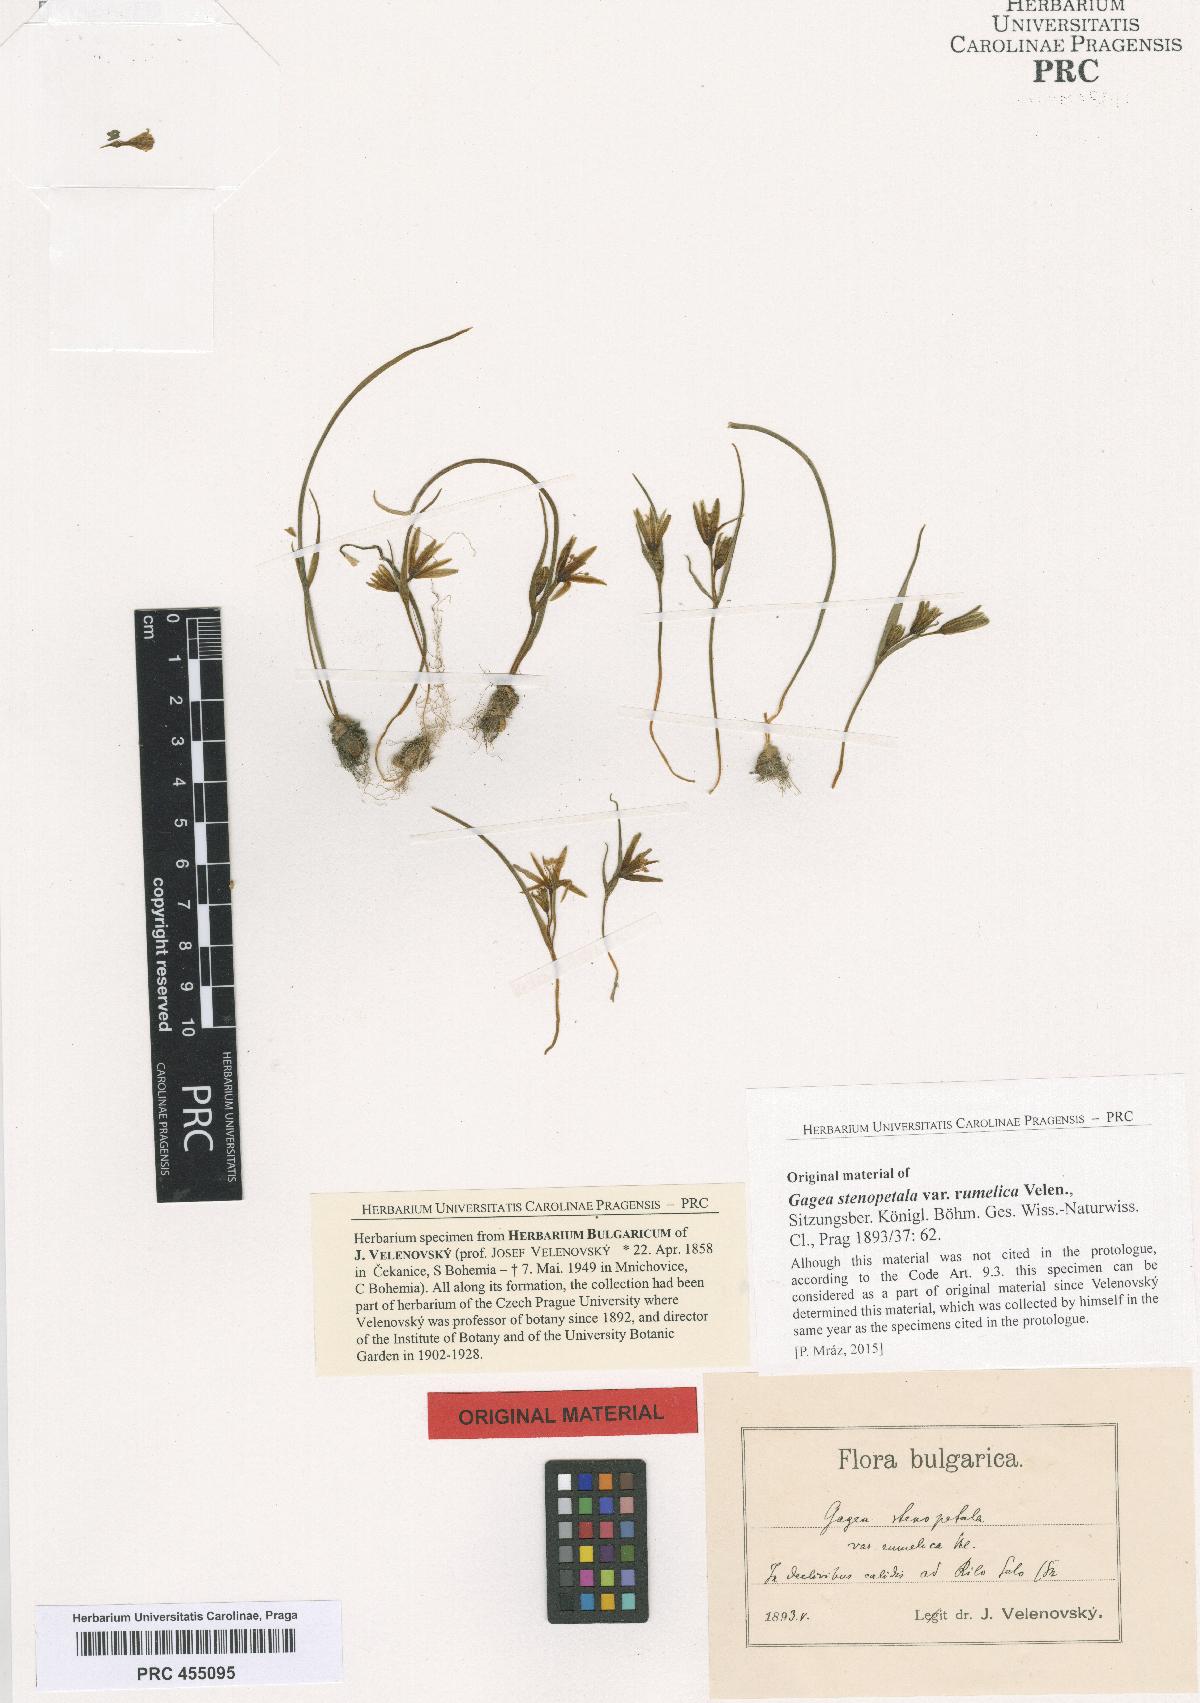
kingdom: Plantae
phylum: Tracheophyta
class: Liliopsida
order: Liliales
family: Liliaceae
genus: Gagea
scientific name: Gagea pratensis
